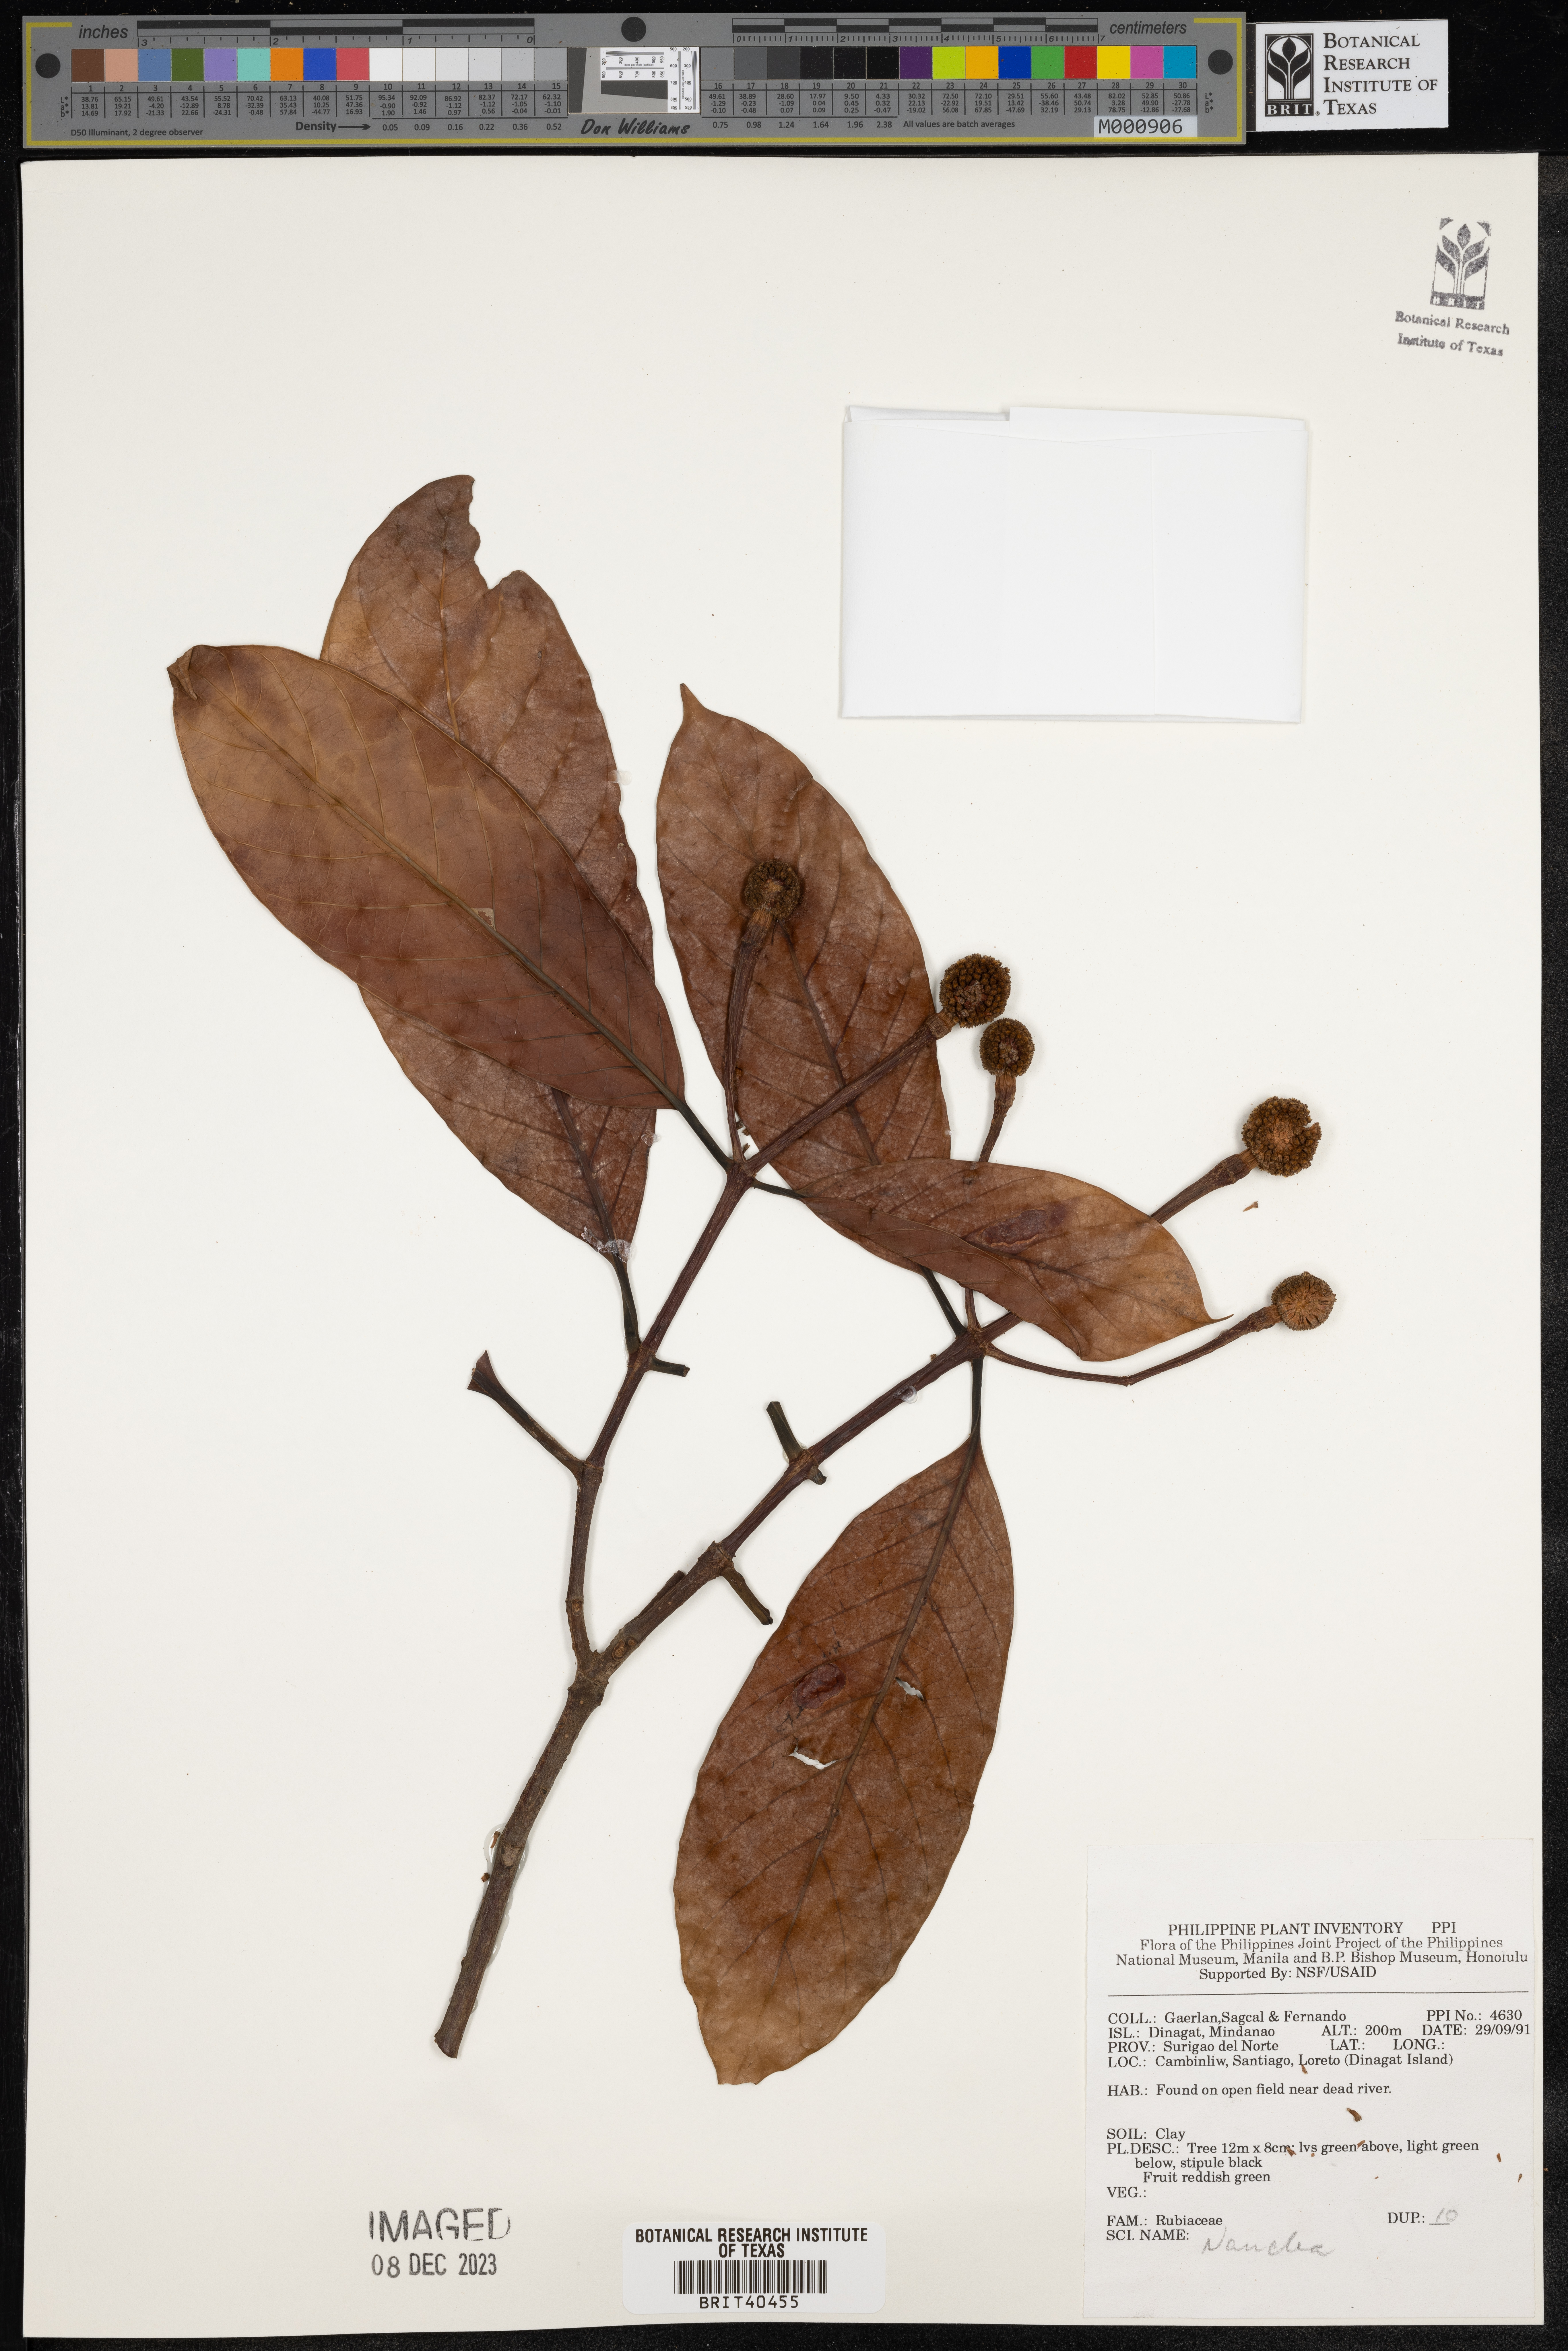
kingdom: Plantae
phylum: Tracheophyta
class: Magnoliopsida
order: Gentianales
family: Rubiaceae
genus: Nauclea
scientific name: Nauclea
